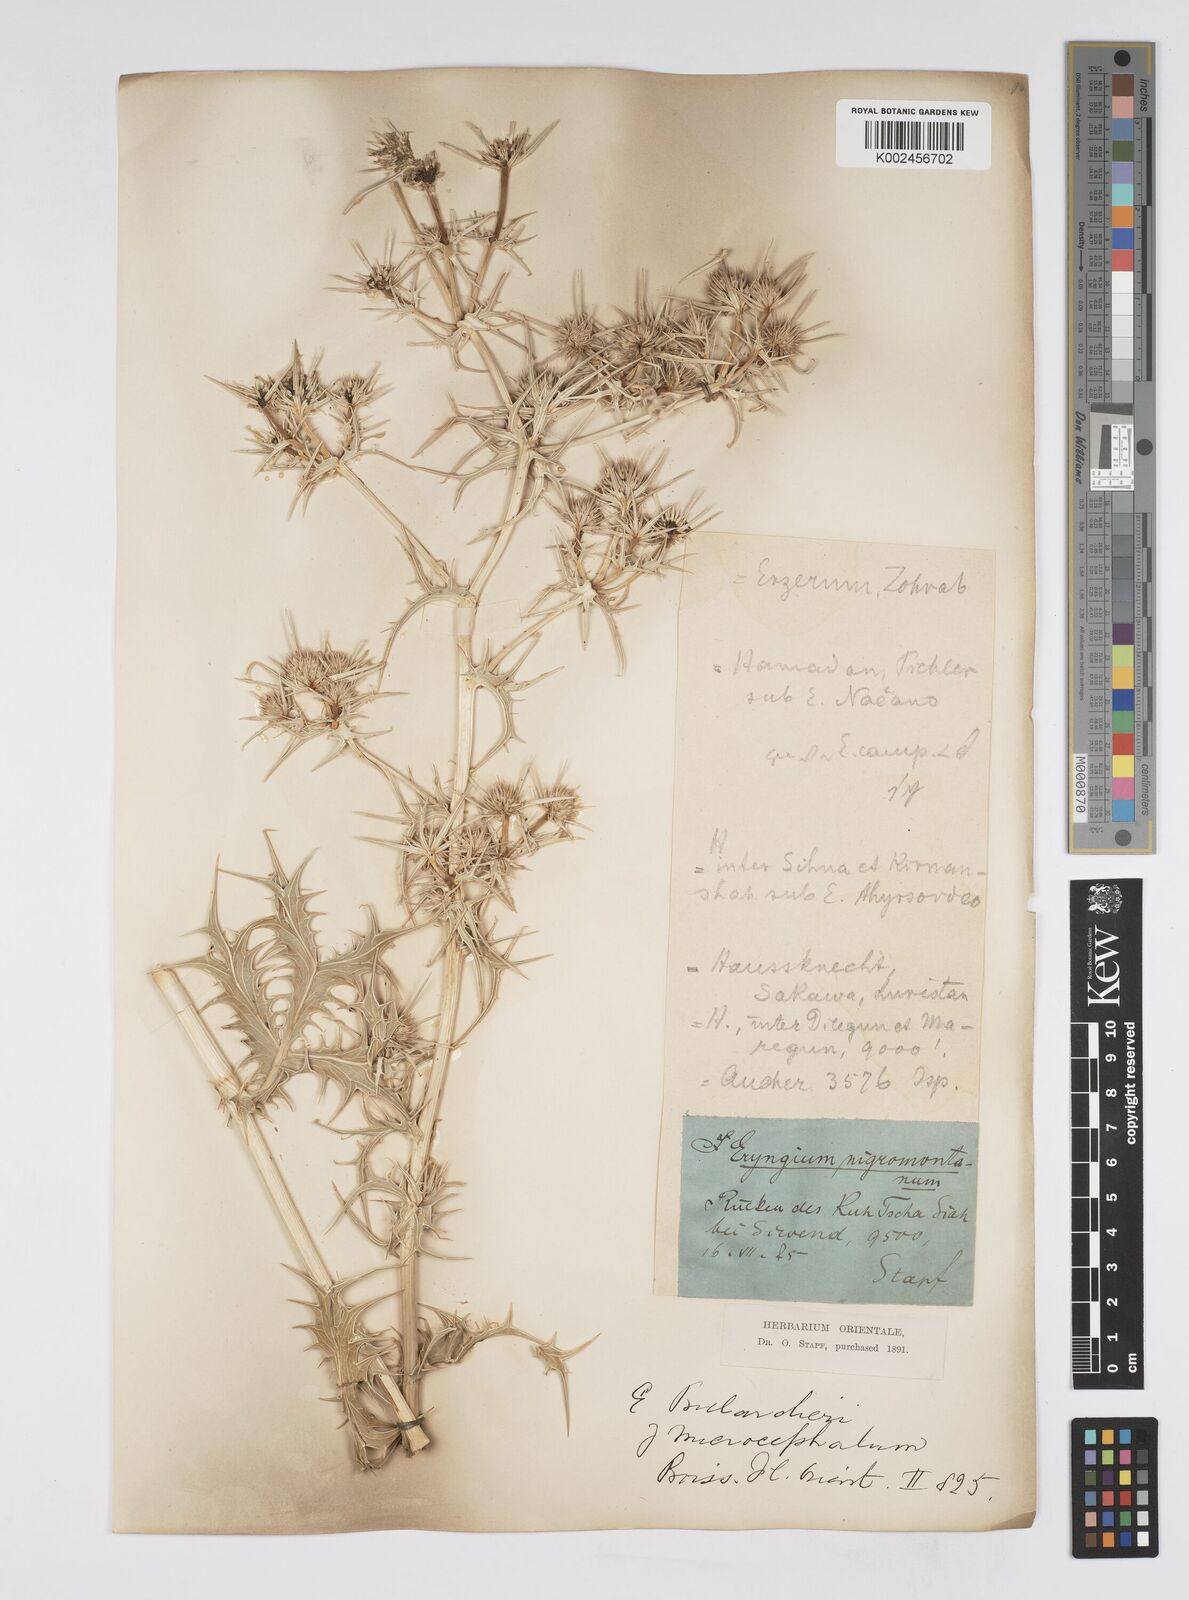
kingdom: Plantae
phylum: Tracheophyta
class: Magnoliopsida
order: Apiales
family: Apiaceae
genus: Eryngium
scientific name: Eryngium heldreichii
